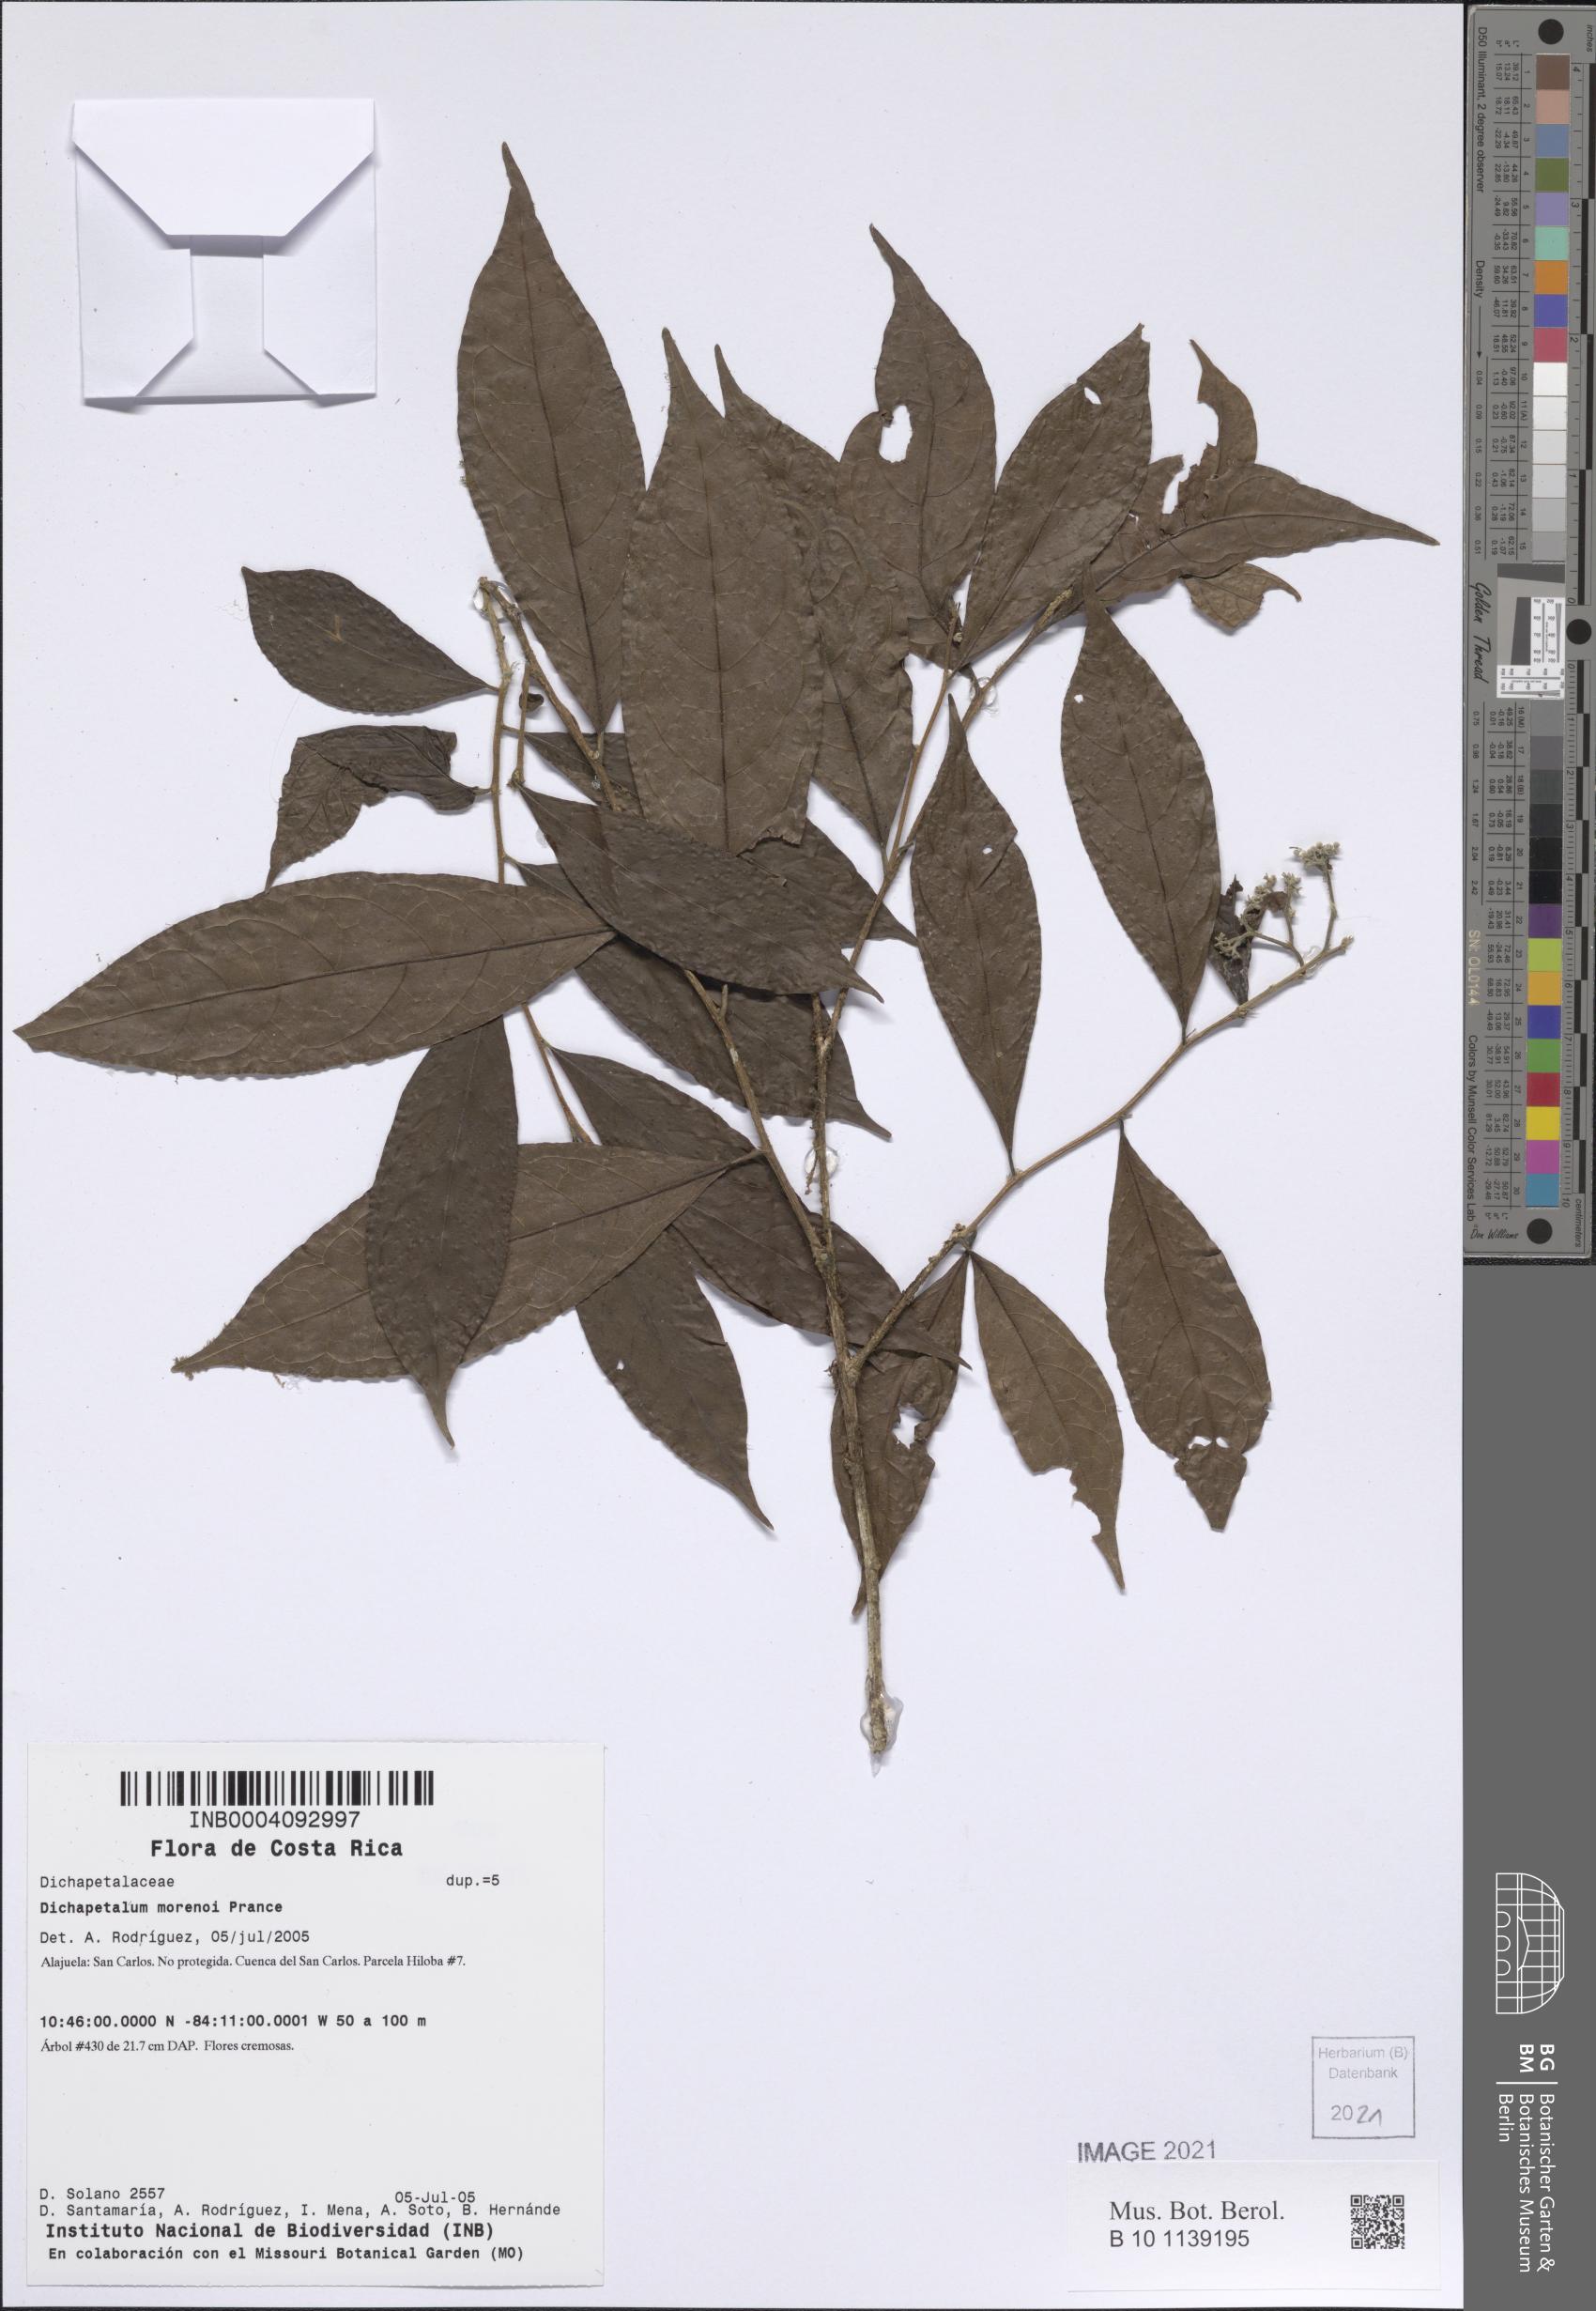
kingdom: Plantae
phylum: Tracheophyta
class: Magnoliopsida
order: Malpighiales
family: Dichapetalaceae
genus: Dichapetalum
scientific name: Dichapetalum morenoi
